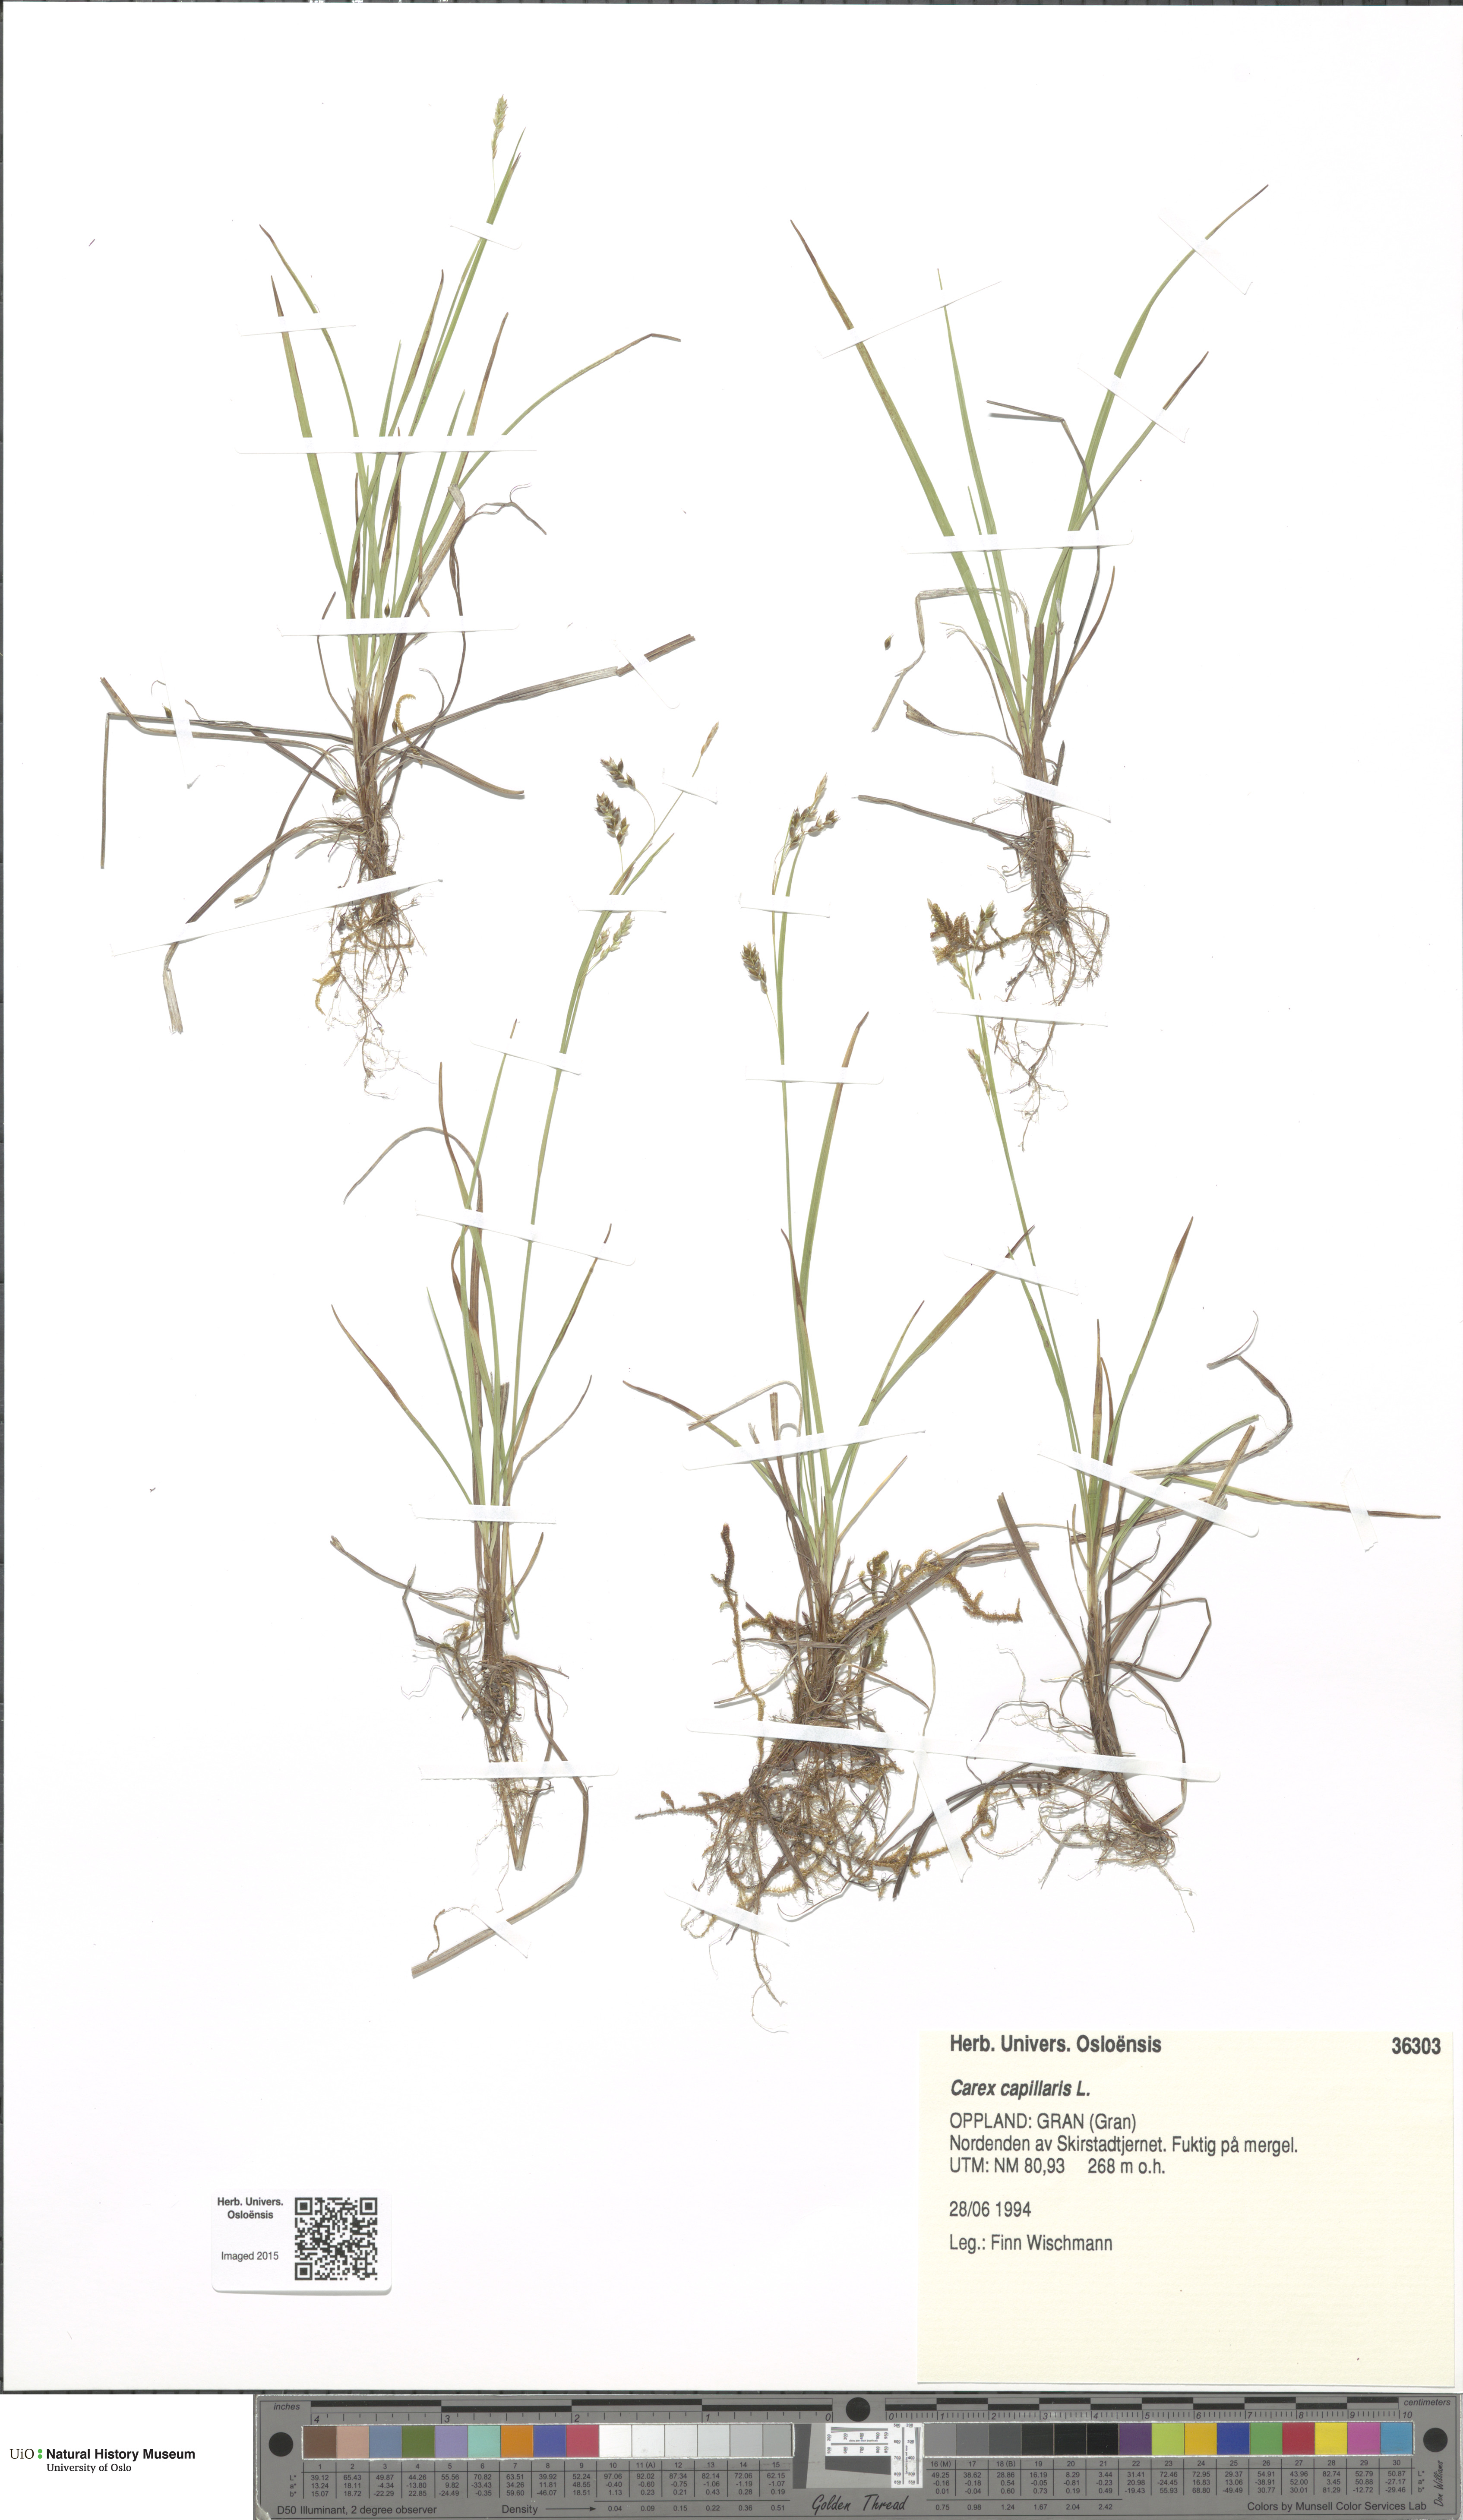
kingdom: Plantae
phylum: Tracheophyta
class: Liliopsida
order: Poales
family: Cyperaceae
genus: Carex
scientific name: Carex capillaris
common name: Hair sedge
